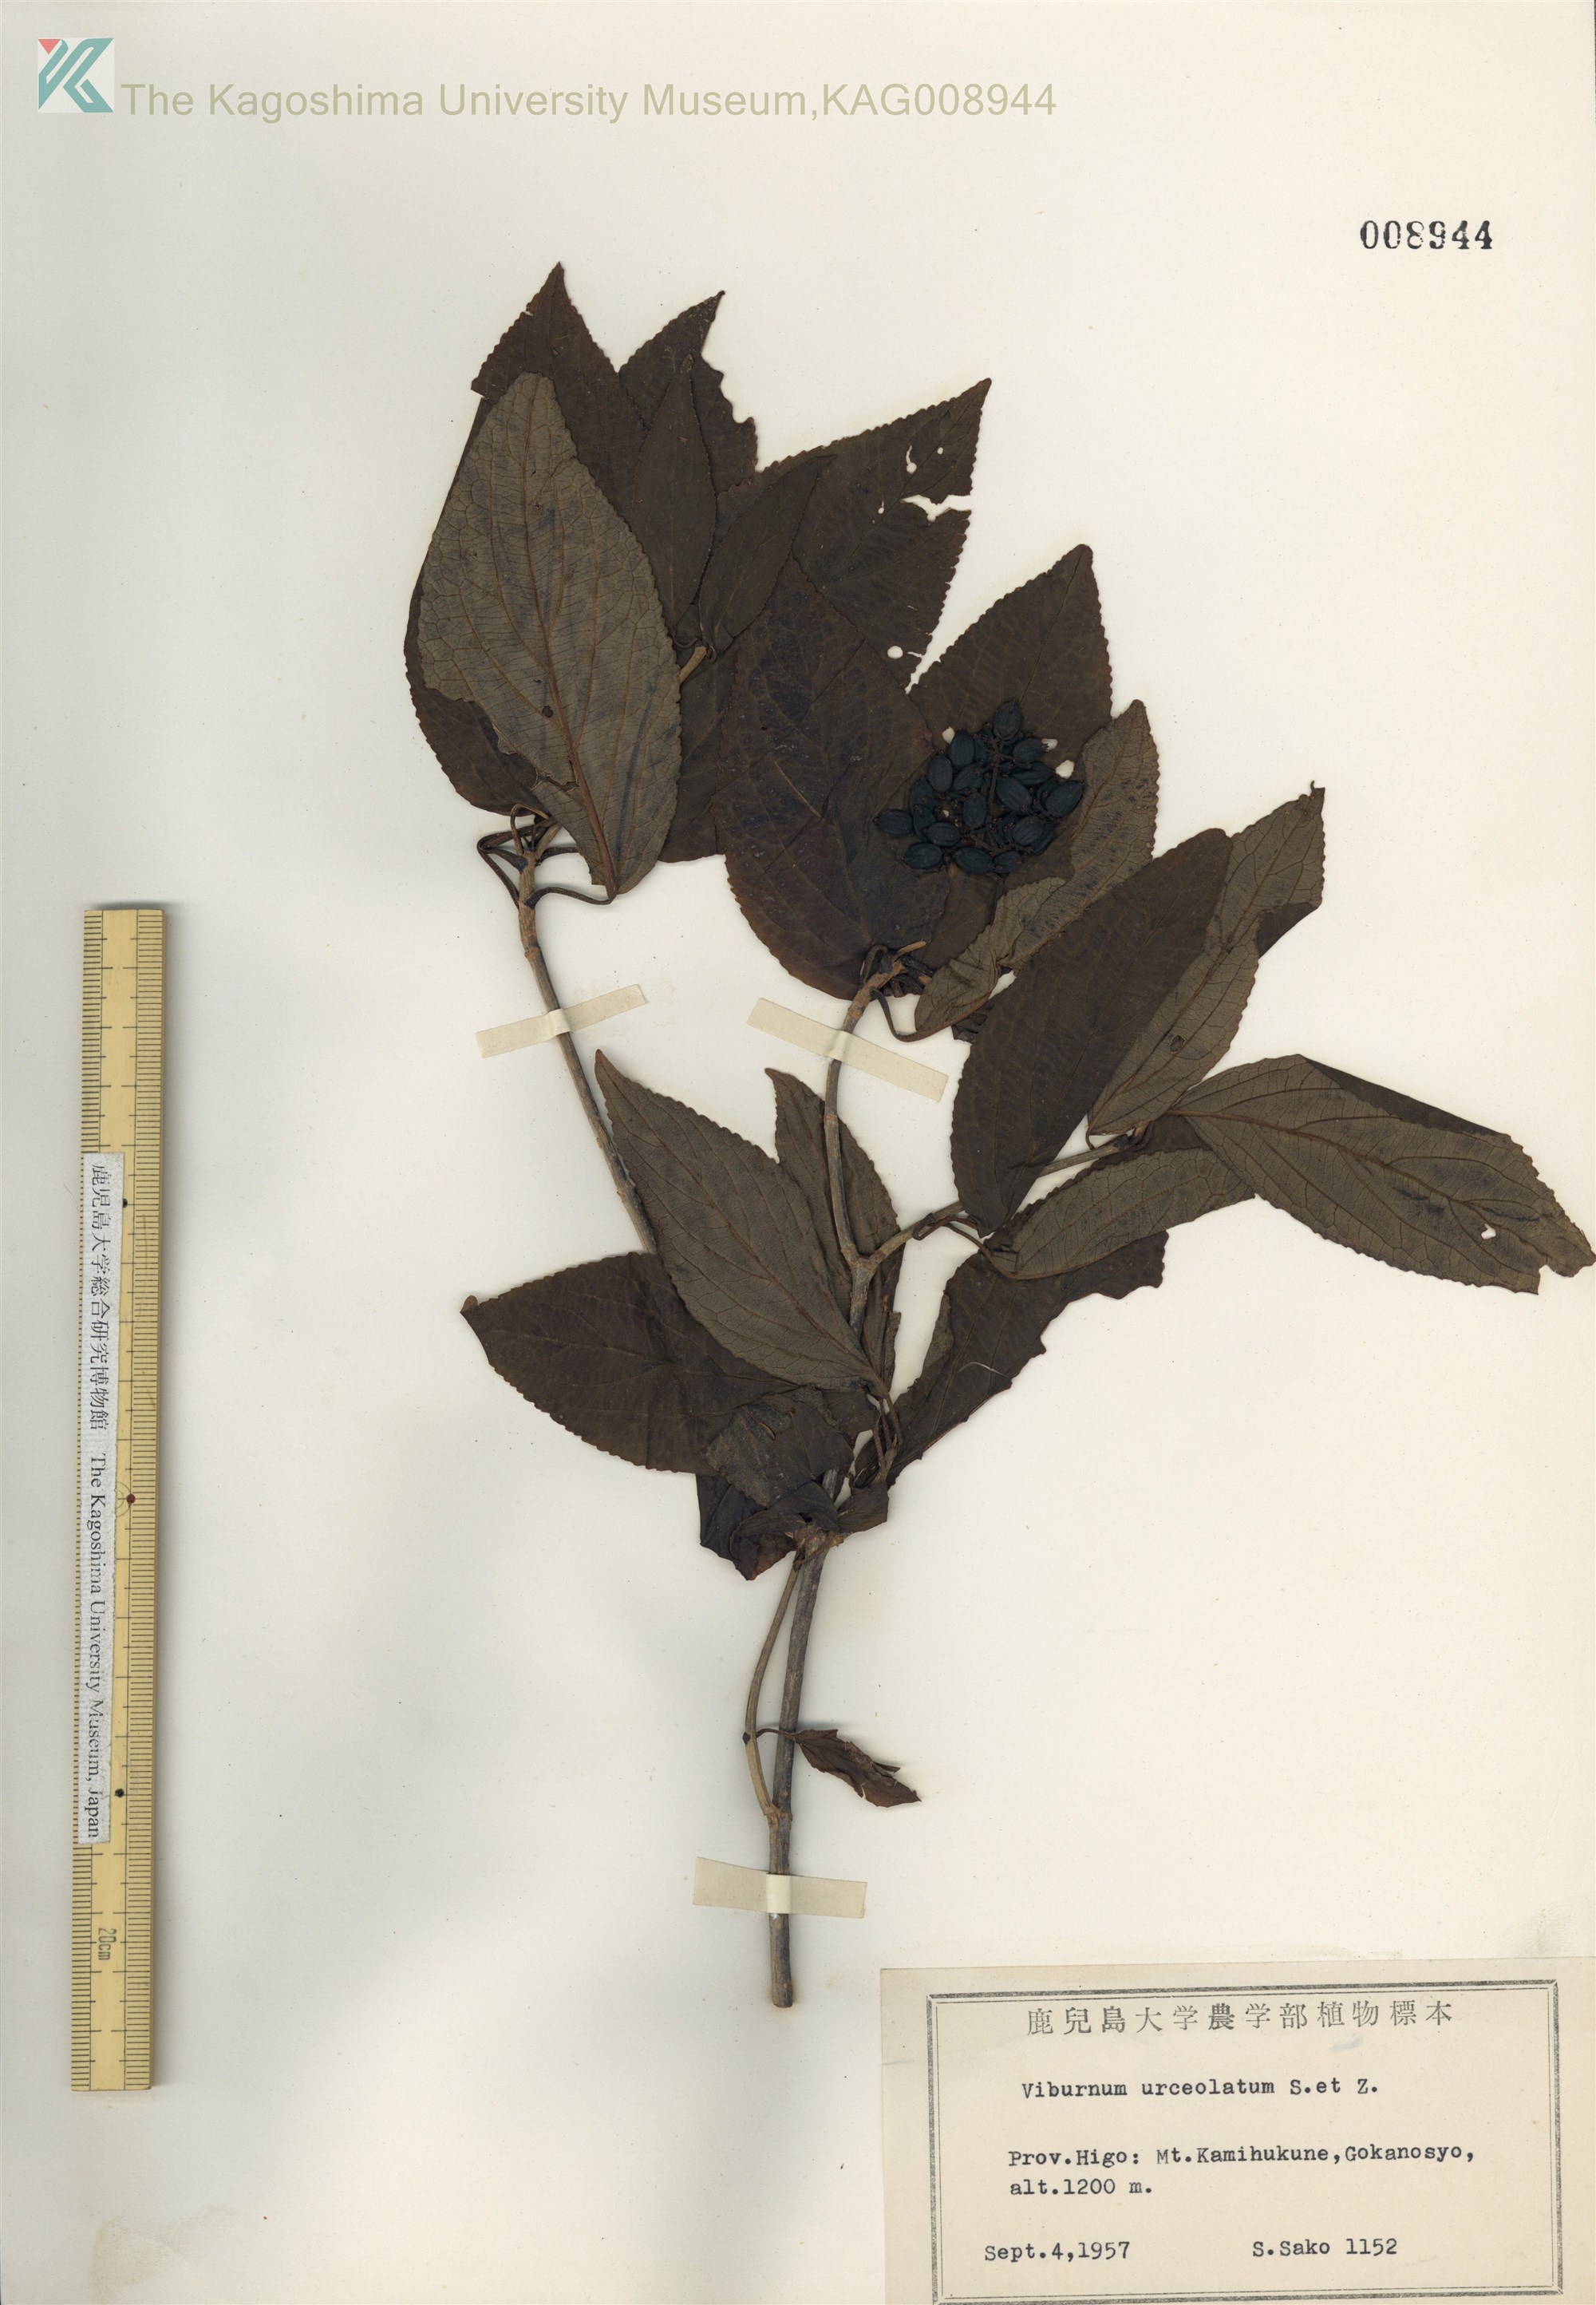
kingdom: Plantae
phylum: Tracheophyta
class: Magnoliopsida
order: Dipsacales
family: Viburnaceae
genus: Viburnum
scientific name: Viburnum urceolatum
